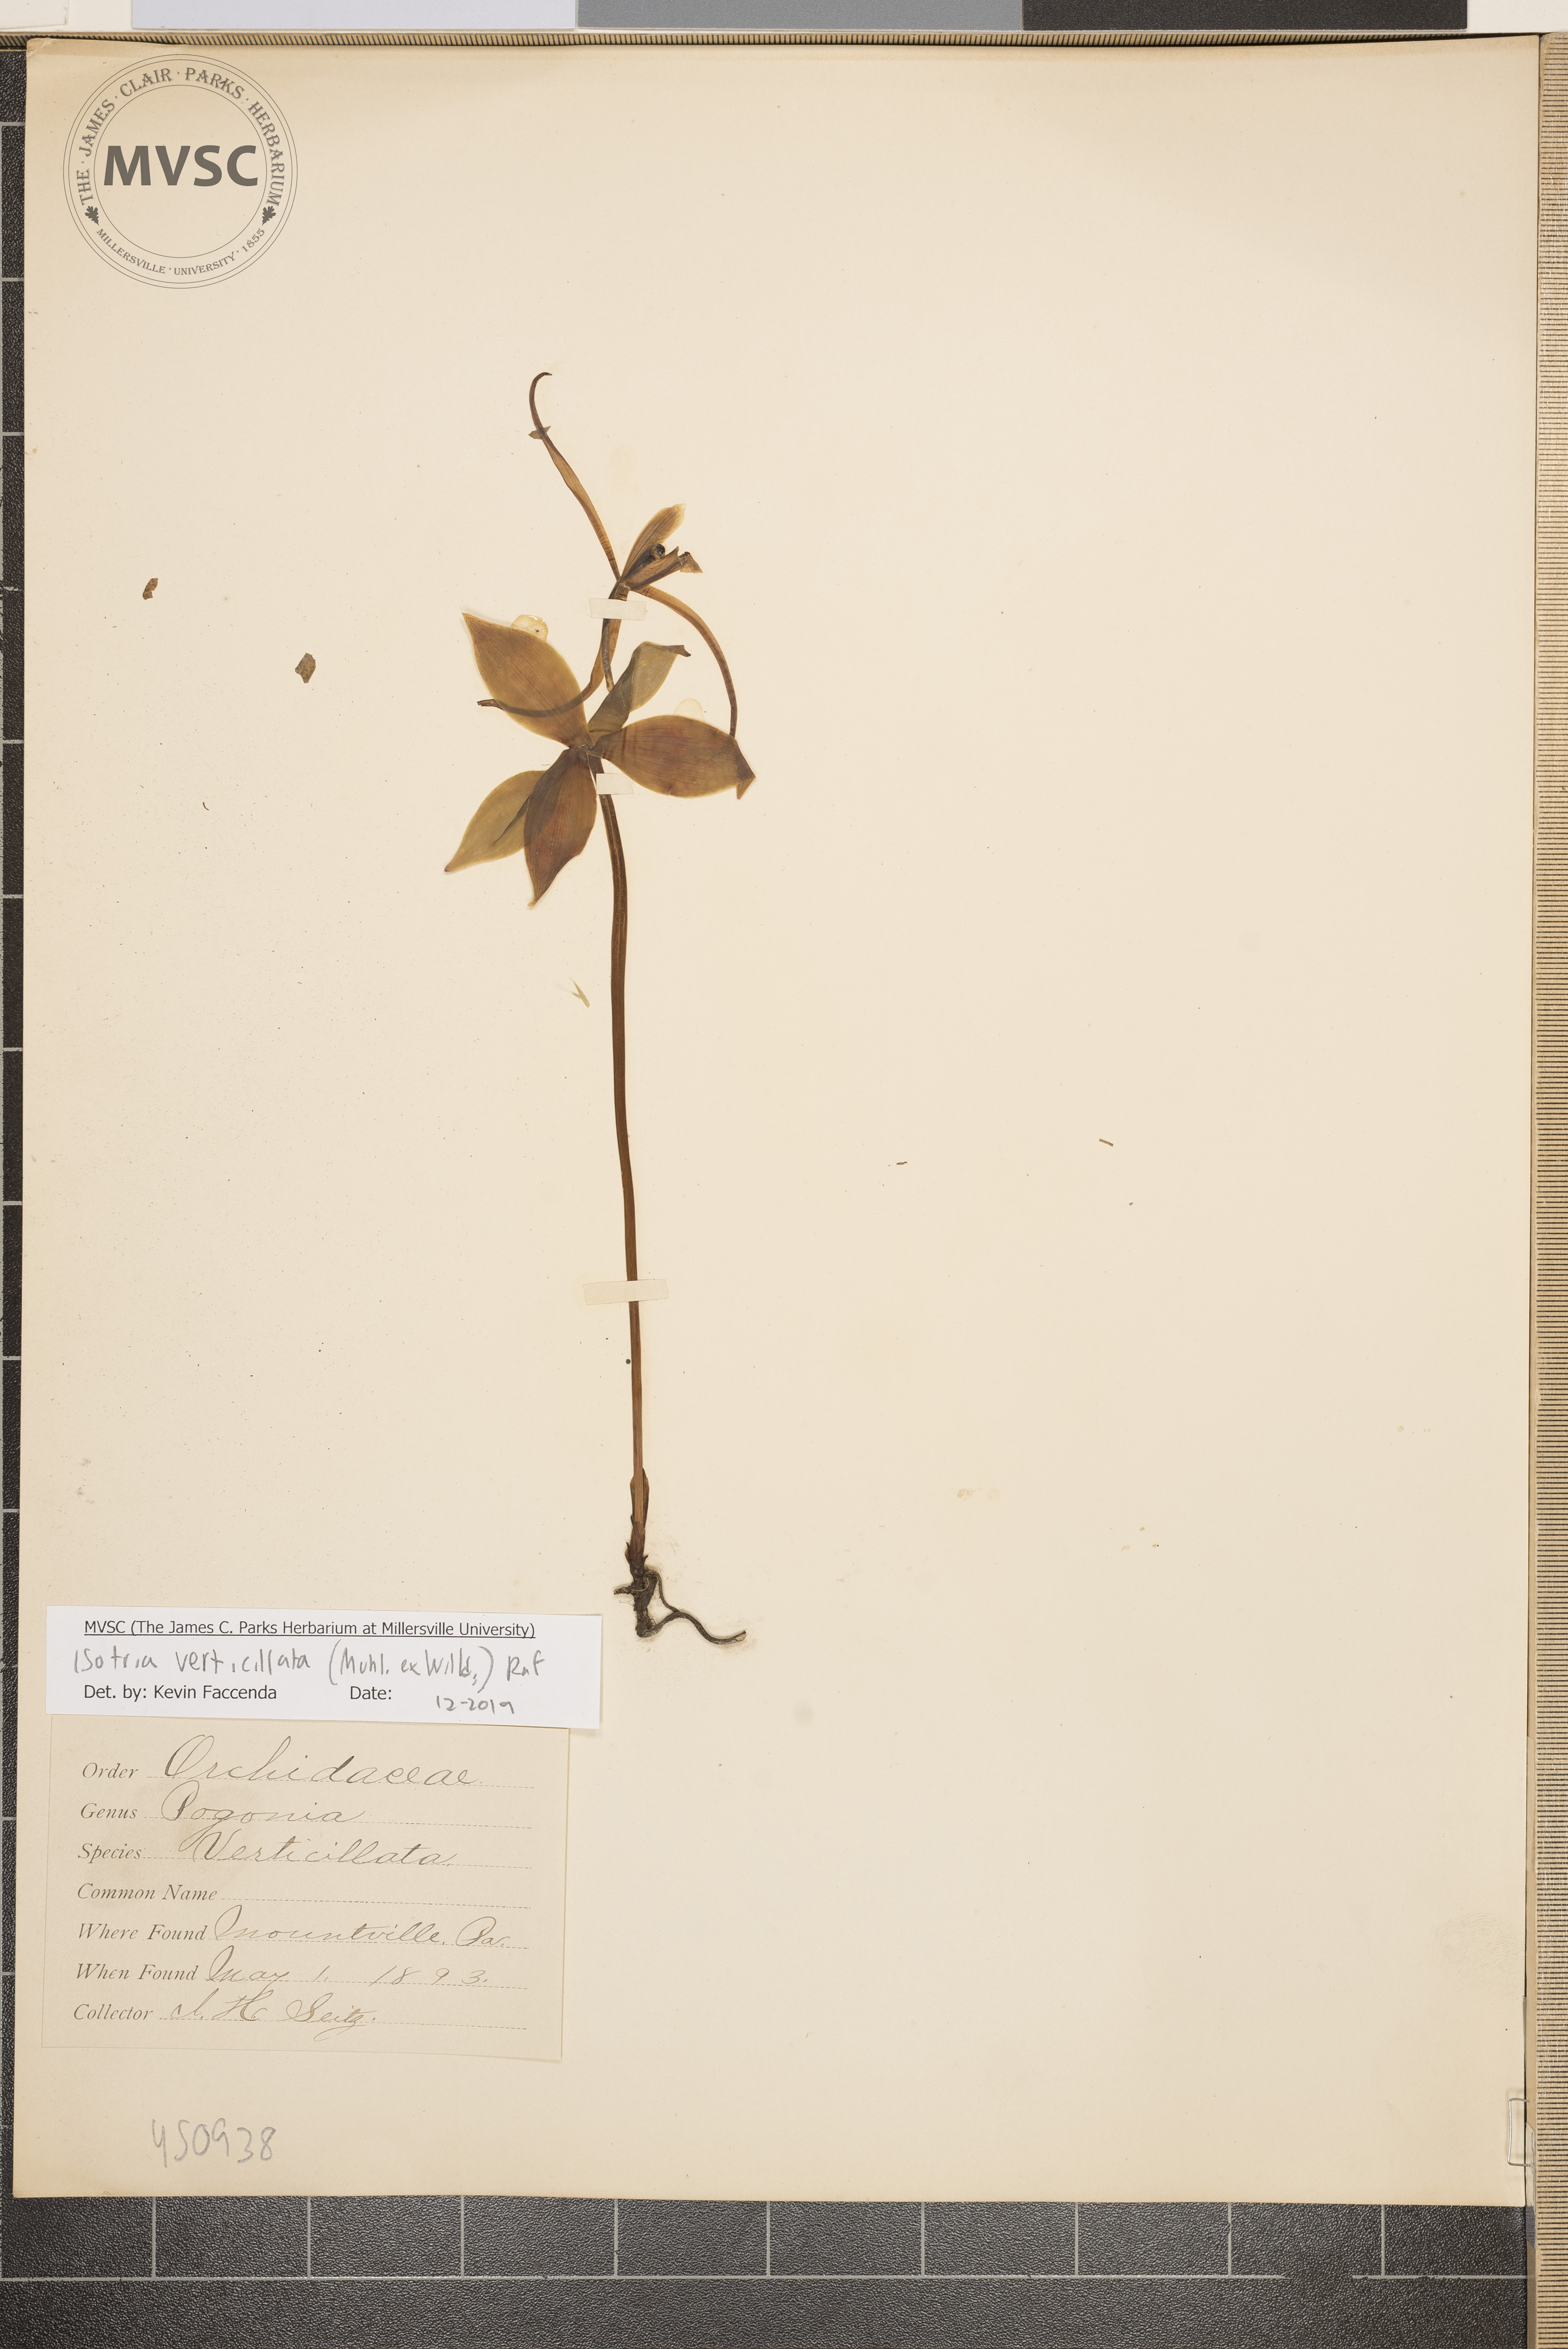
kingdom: Plantae
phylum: Tracheophyta
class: Liliopsida
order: Asparagales
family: Orchidaceae
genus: Isotria
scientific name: Isotria verticillata
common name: Large whorled pogonia
